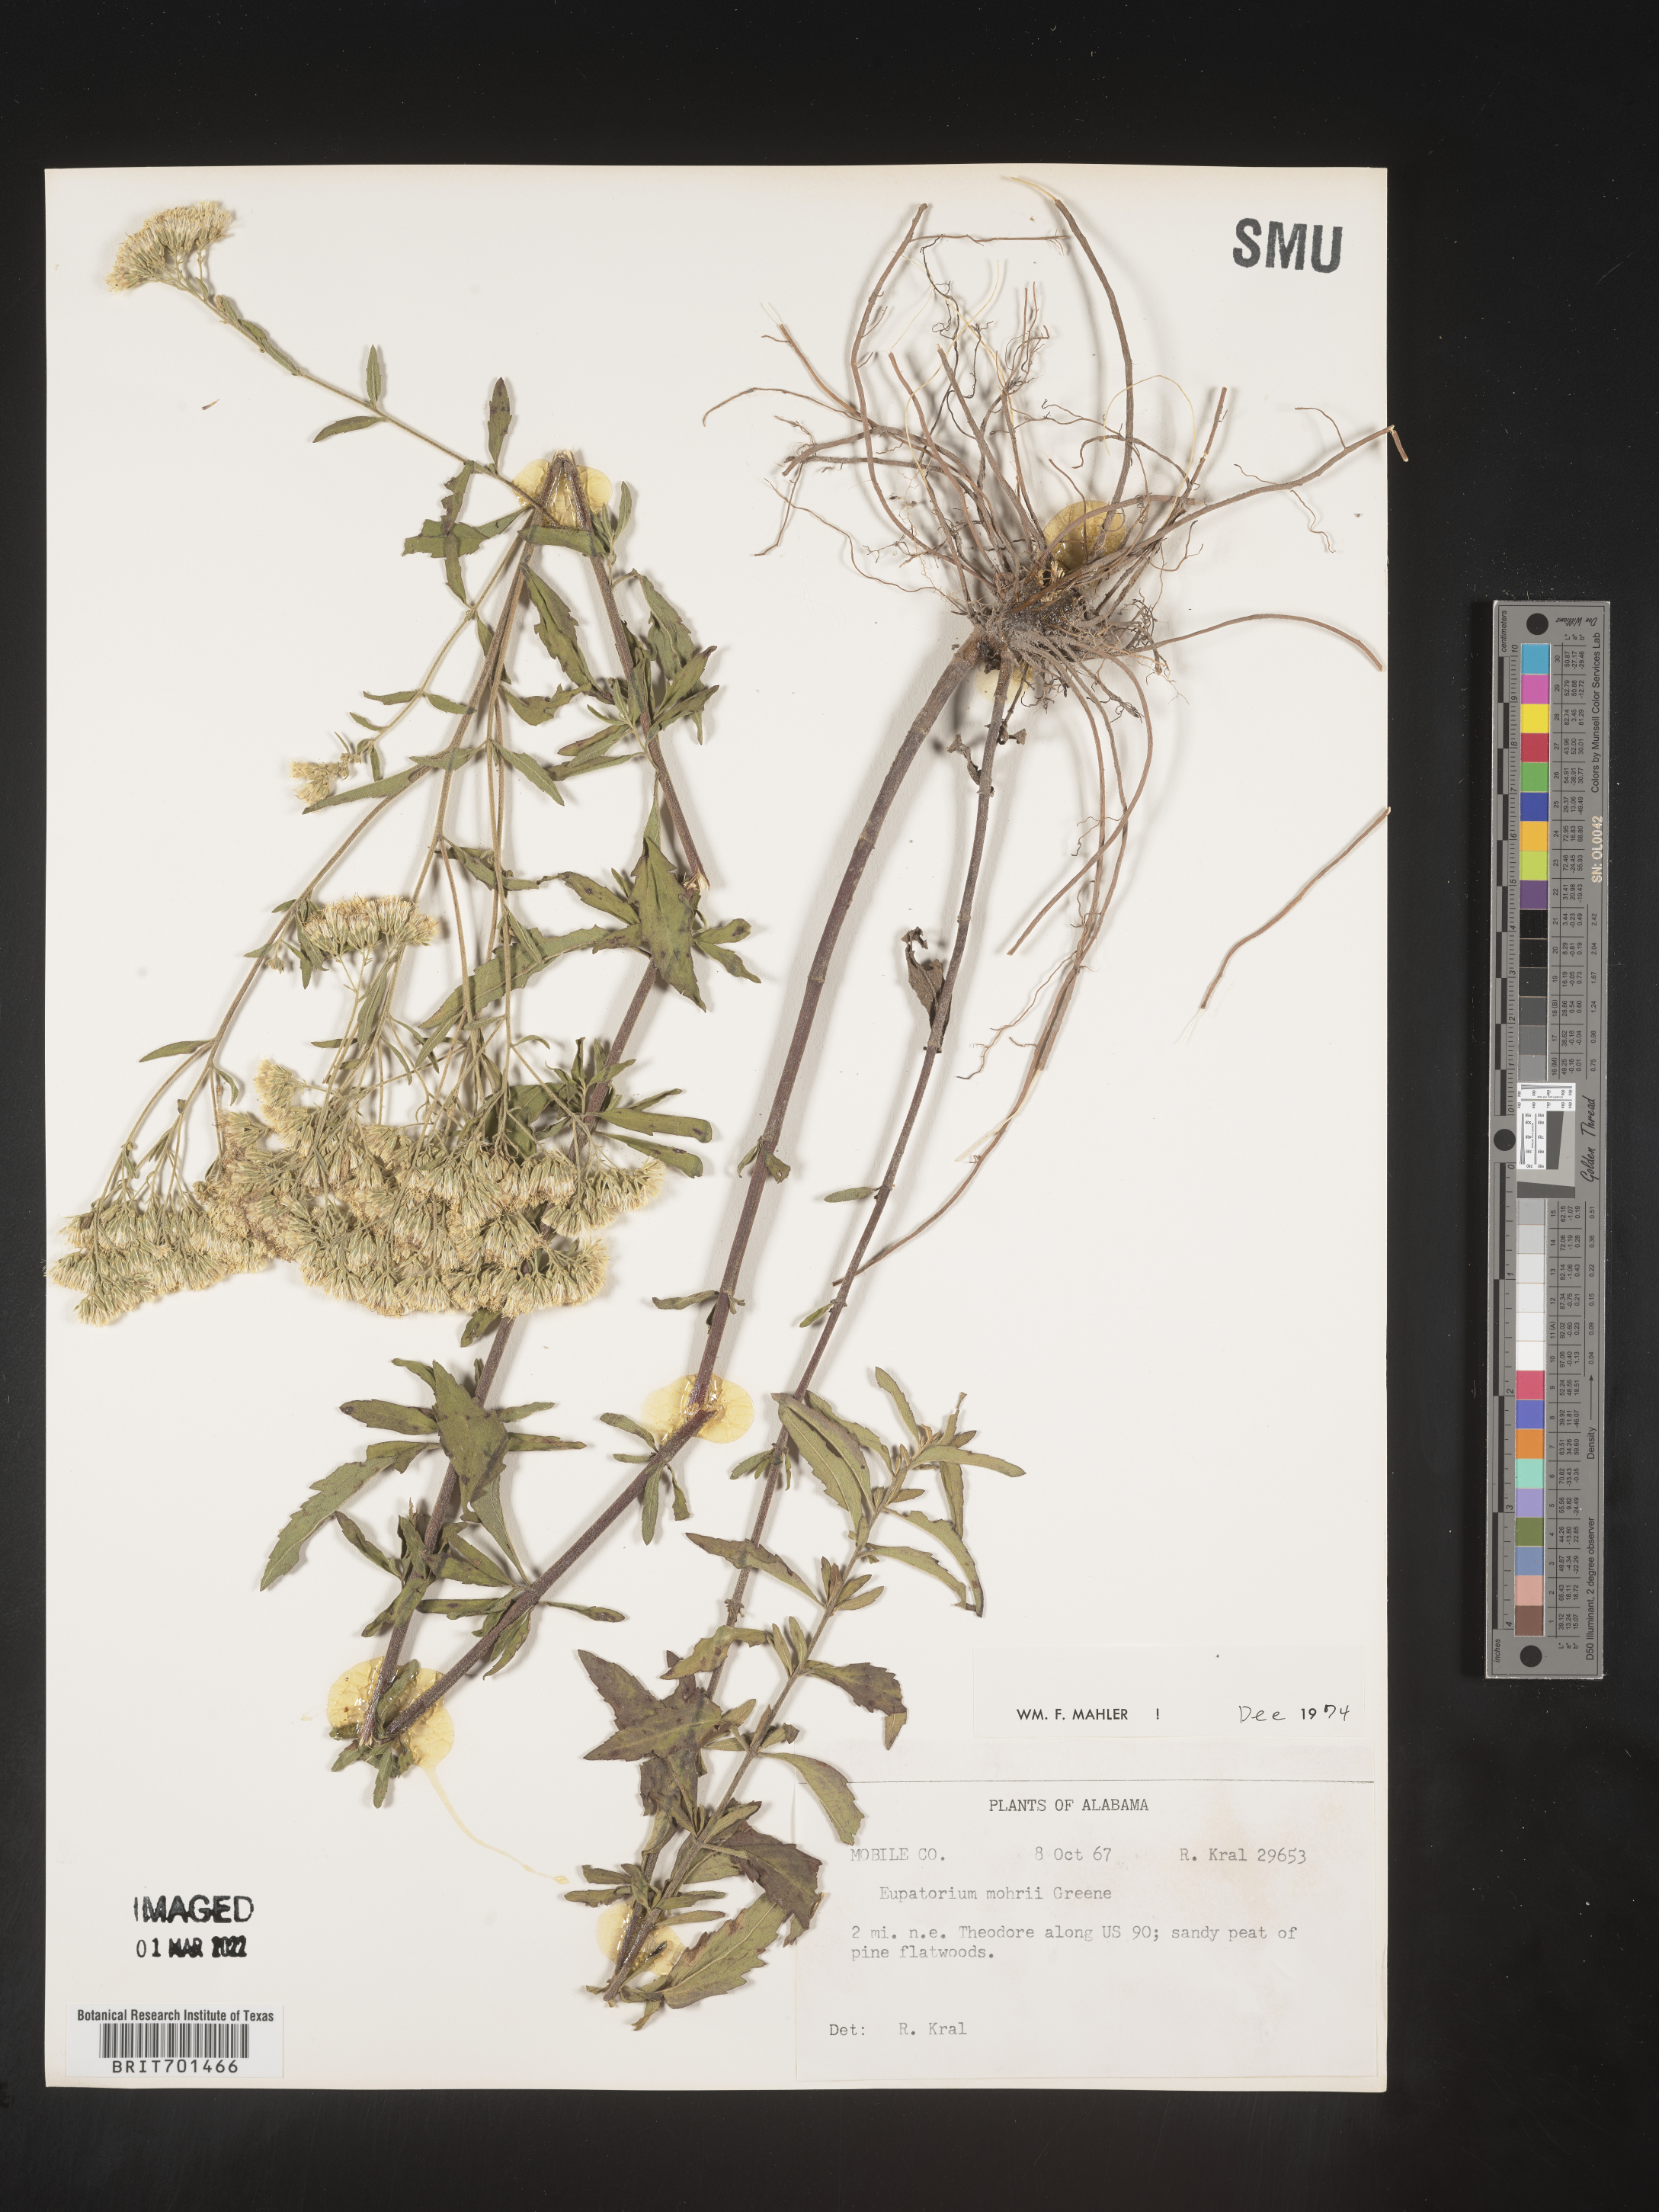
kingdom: Plantae
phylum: Tracheophyta
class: Magnoliopsida
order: Asterales
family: Asteraceae
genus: Eupatorium
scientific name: Eupatorium mohrii
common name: Mohr's thoroughwort
